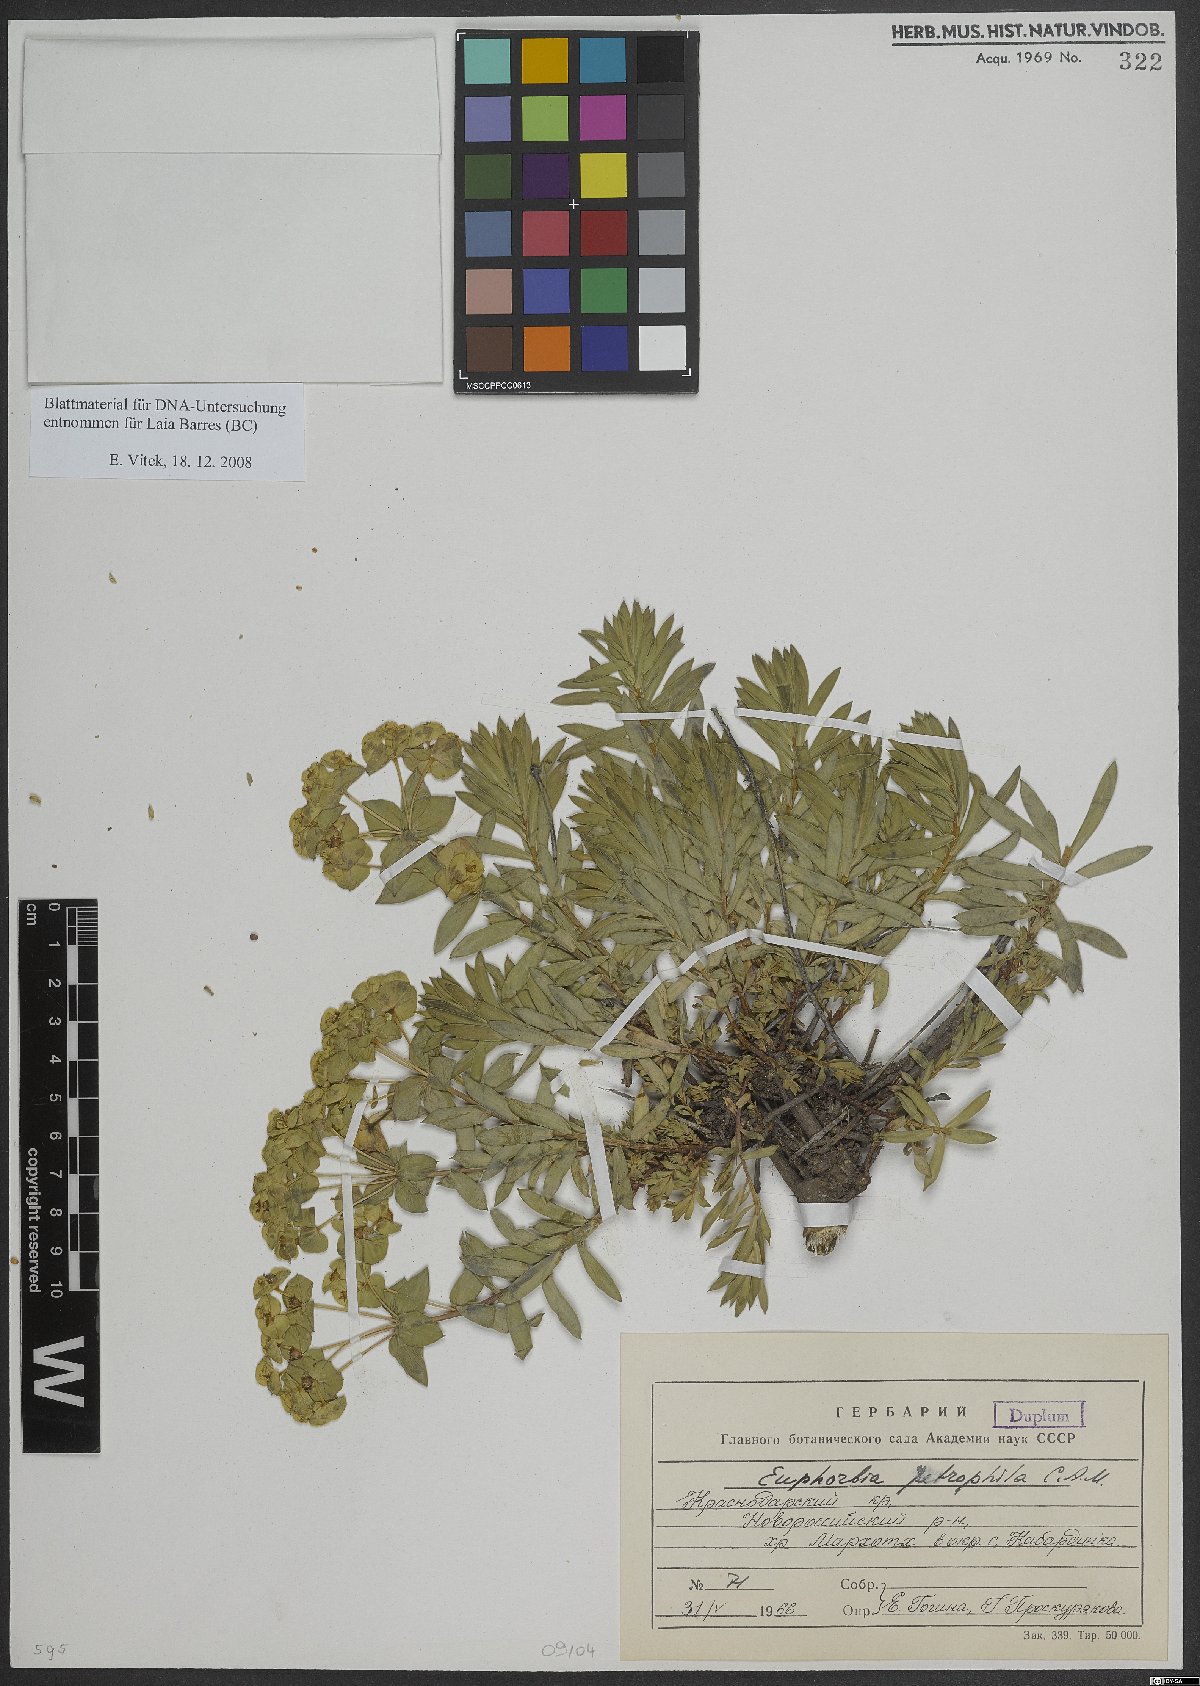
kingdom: Plantae
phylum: Tracheophyta
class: Magnoliopsida
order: Malpighiales
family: Euphorbiaceae
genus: Euphorbia
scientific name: Euphorbia petrophila
